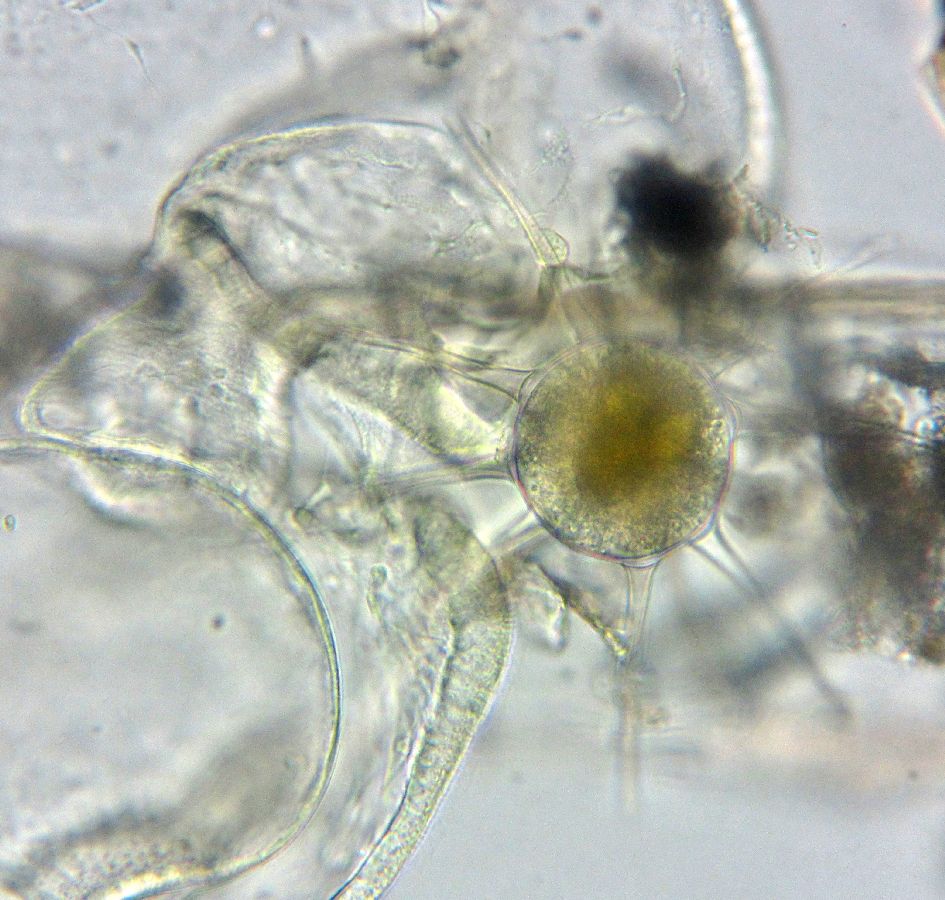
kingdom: Animalia
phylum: Arthropoda
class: Copepoda
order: Calanoida
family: Centropagidae
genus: Centropages
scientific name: Centropages hamatus
